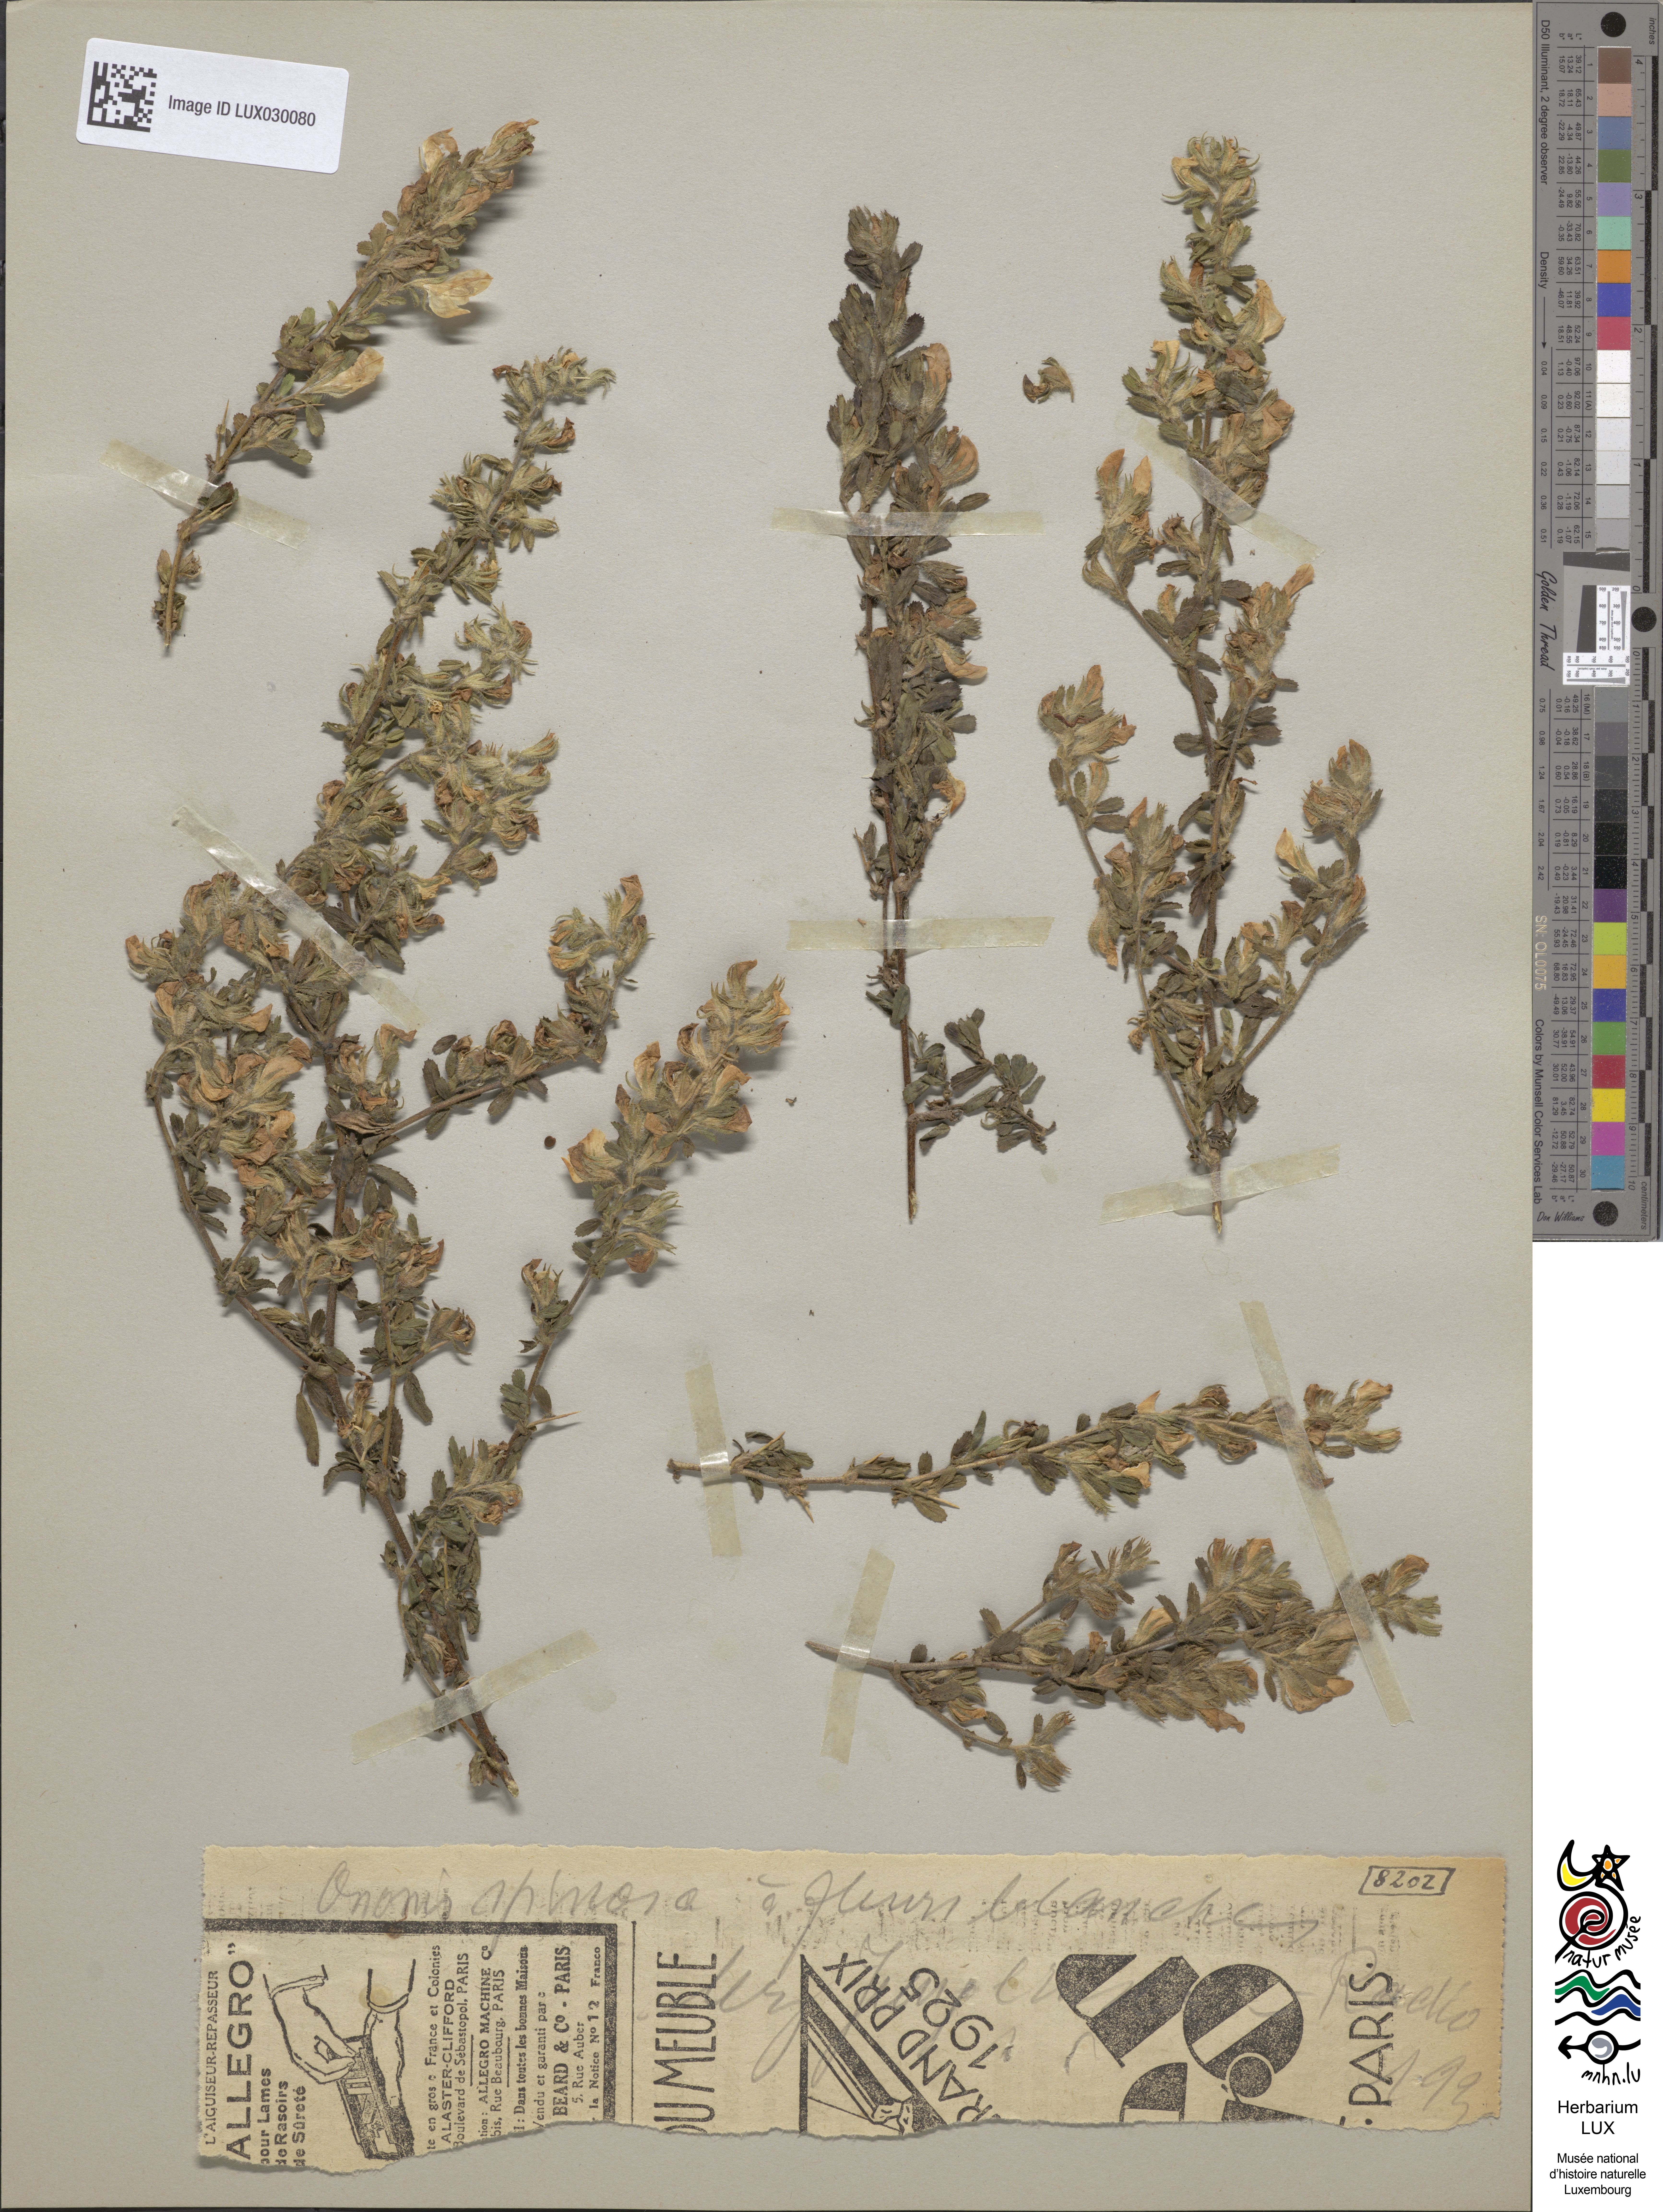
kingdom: Plantae
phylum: Tracheophyta
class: Magnoliopsida
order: Fabales
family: Fabaceae
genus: Ononis
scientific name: Ononis spinosa
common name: Spiny restharrow
